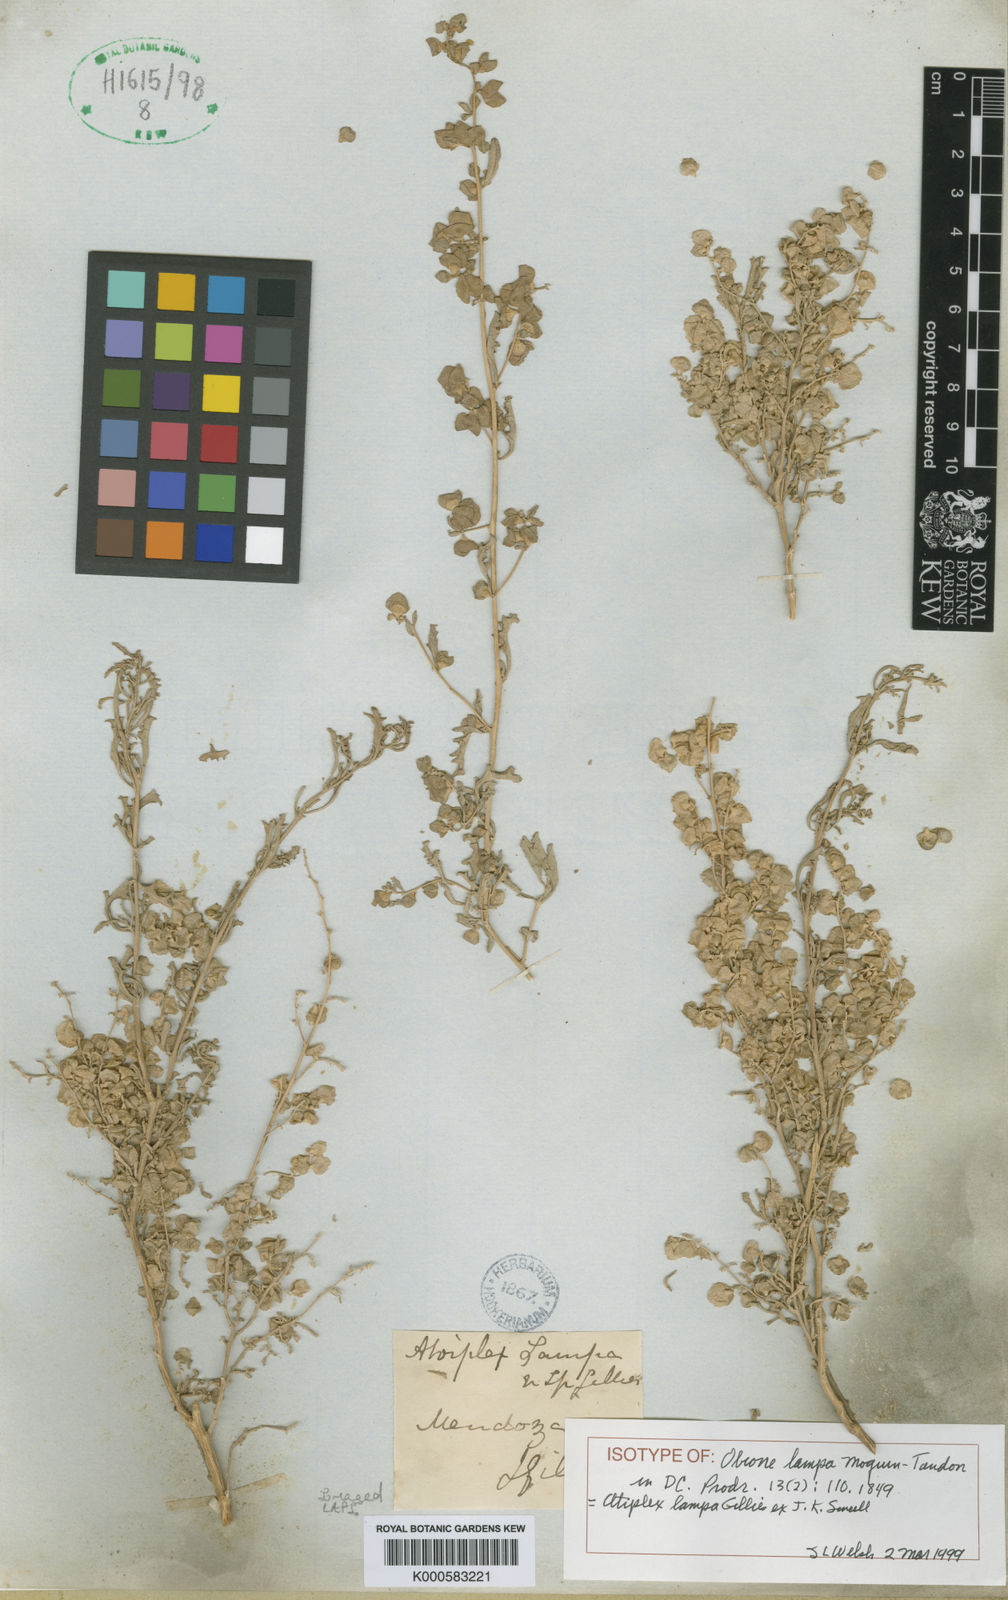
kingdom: Plantae
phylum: Tracheophyta
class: Magnoliopsida
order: Caryophyllales
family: Amaranthaceae
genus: Atriplex
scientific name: Atriplex
